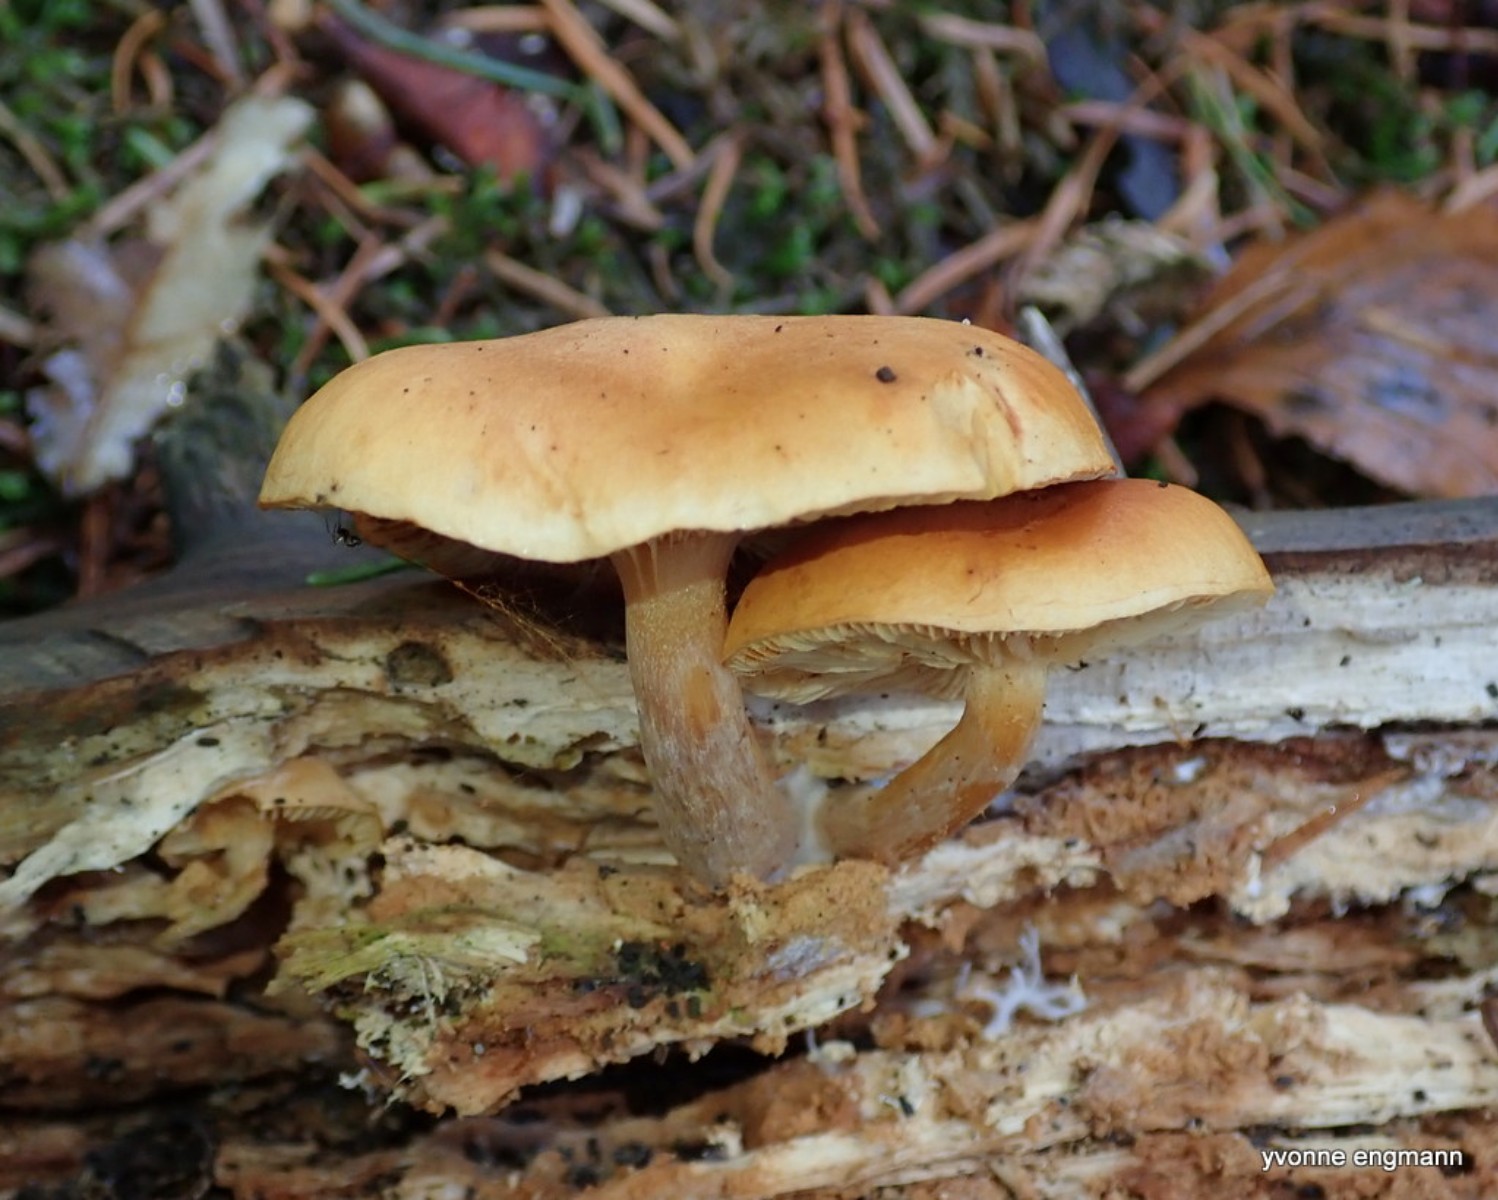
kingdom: Fungi
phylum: Basidiomycota
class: Agaricomycetes
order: Agaricales
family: Hymenogastraceae
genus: Gymnopilus
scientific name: Gymnopilus penetrans
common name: plettet flammehat
